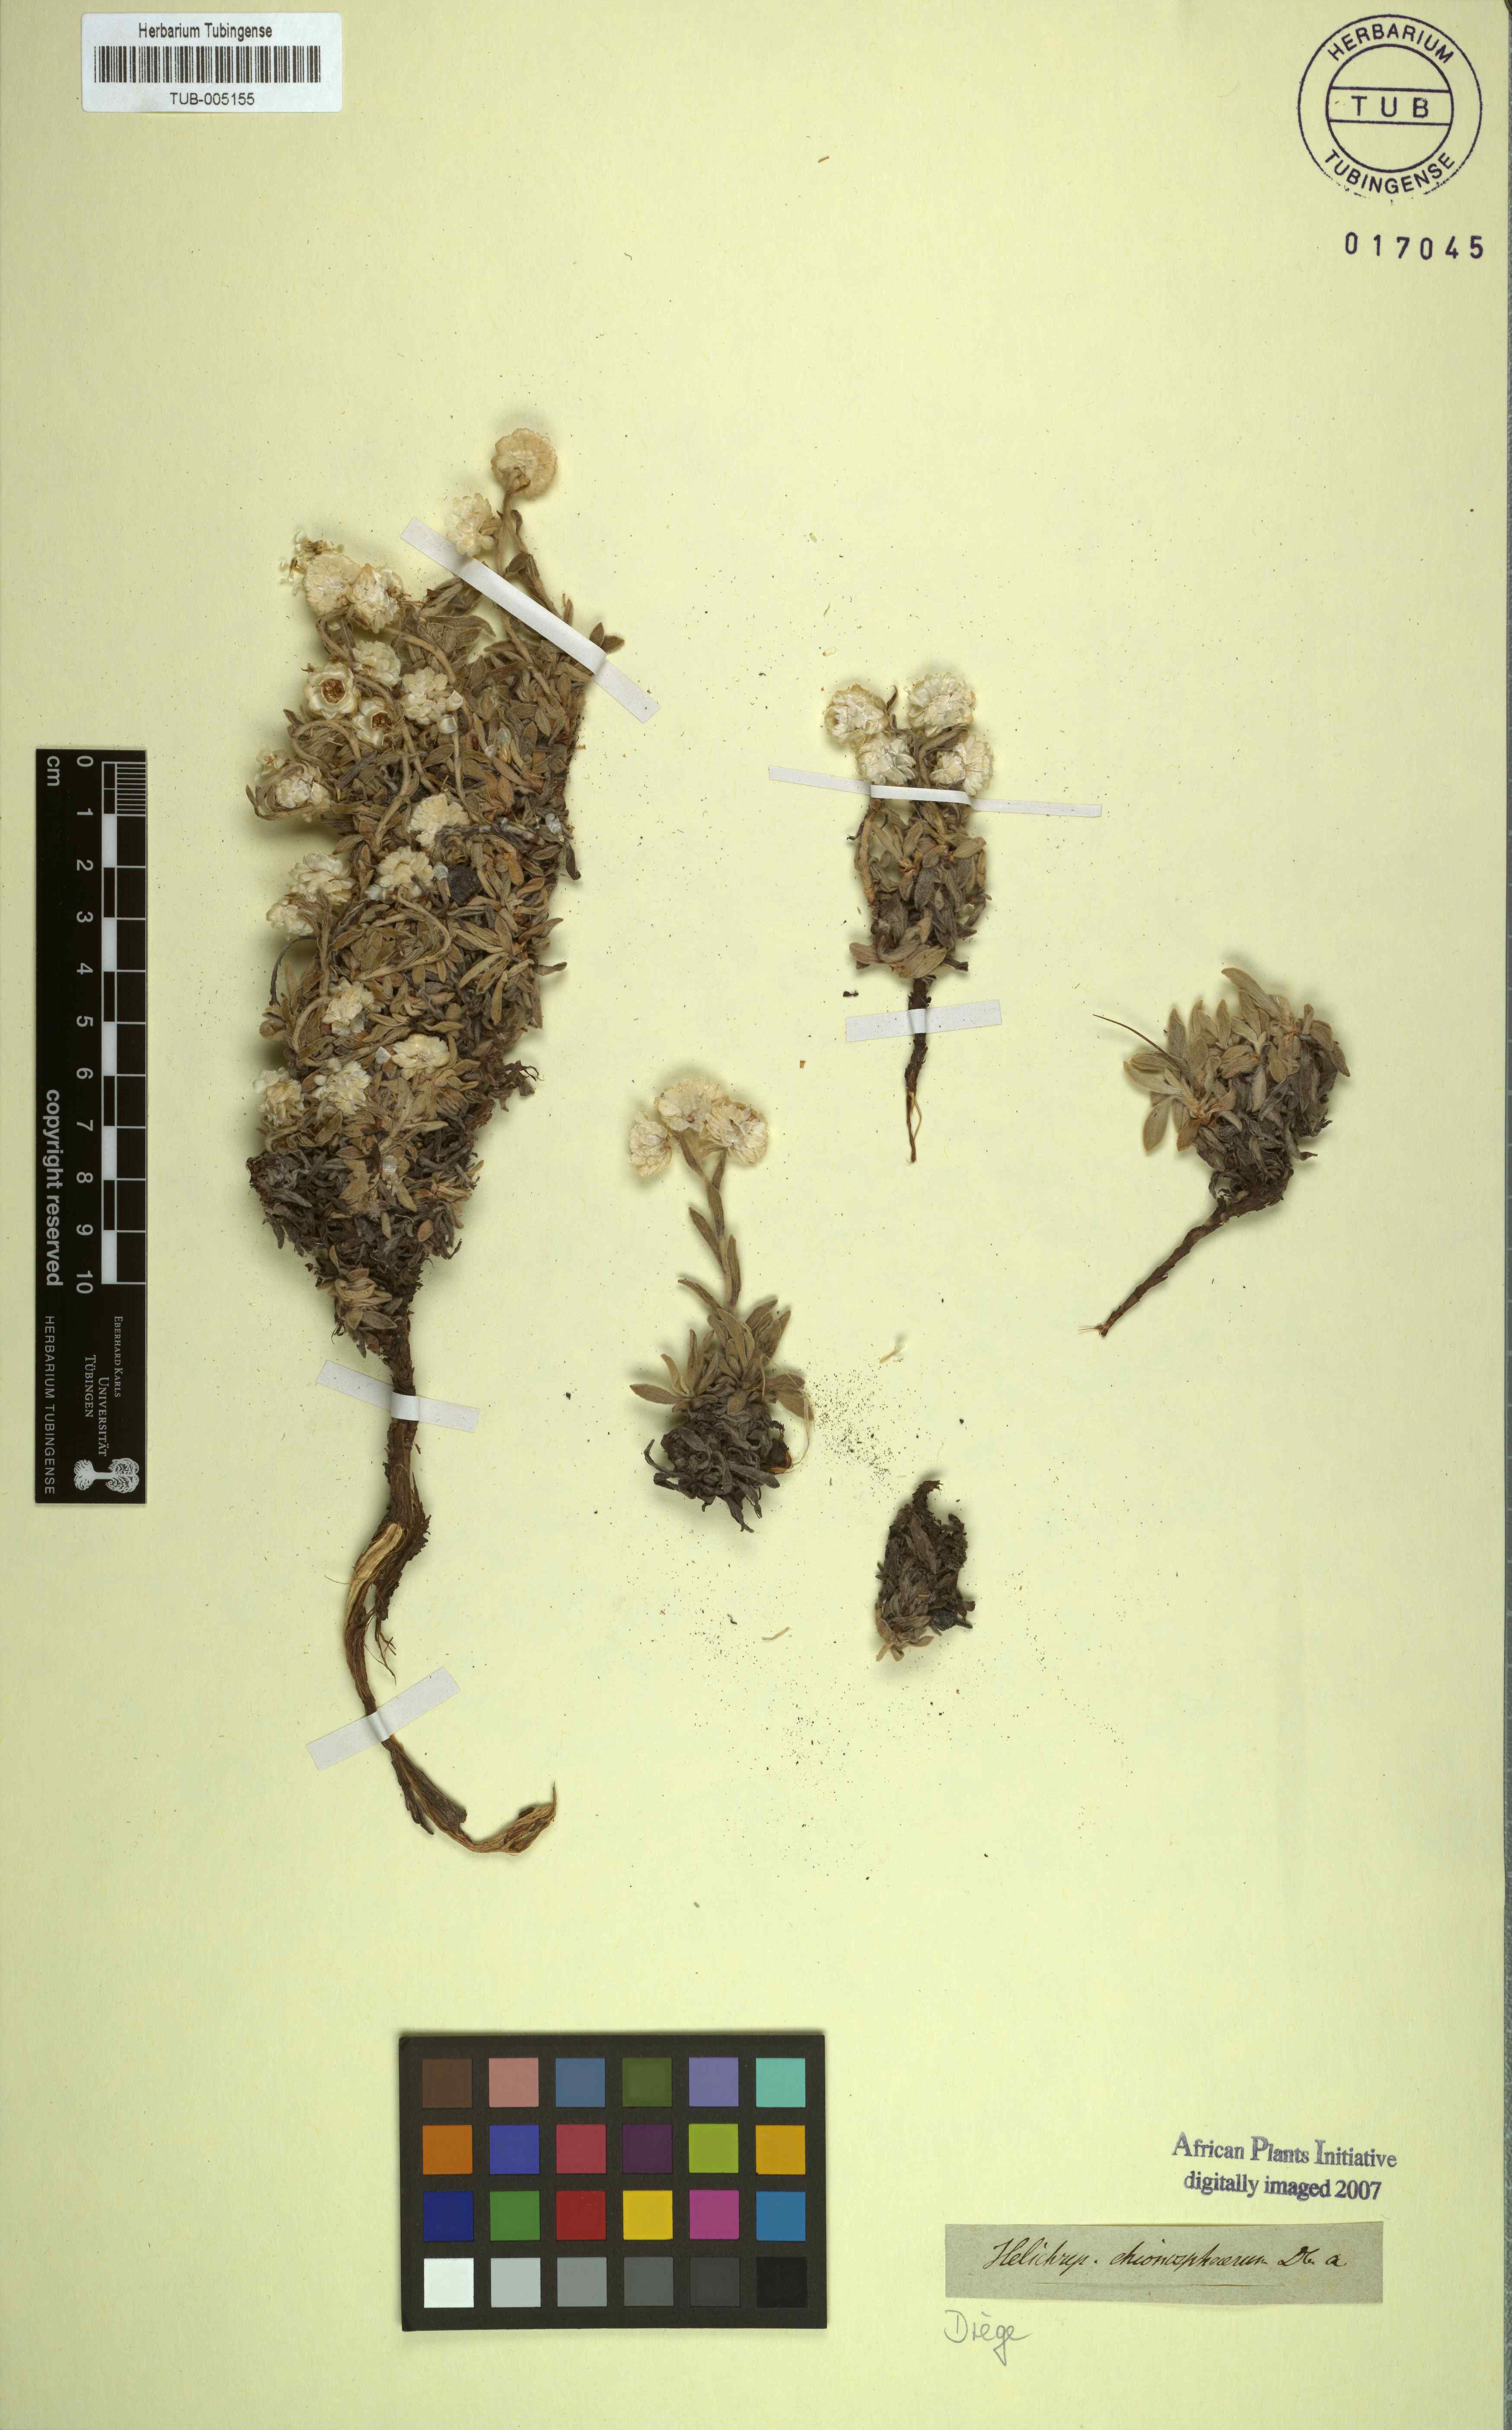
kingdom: Plantae
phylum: Tracheophyta
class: Magnoliopsida
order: Asterales
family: Asteraceae
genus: Helichrysum
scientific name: Helichrysum chionosphaerum
